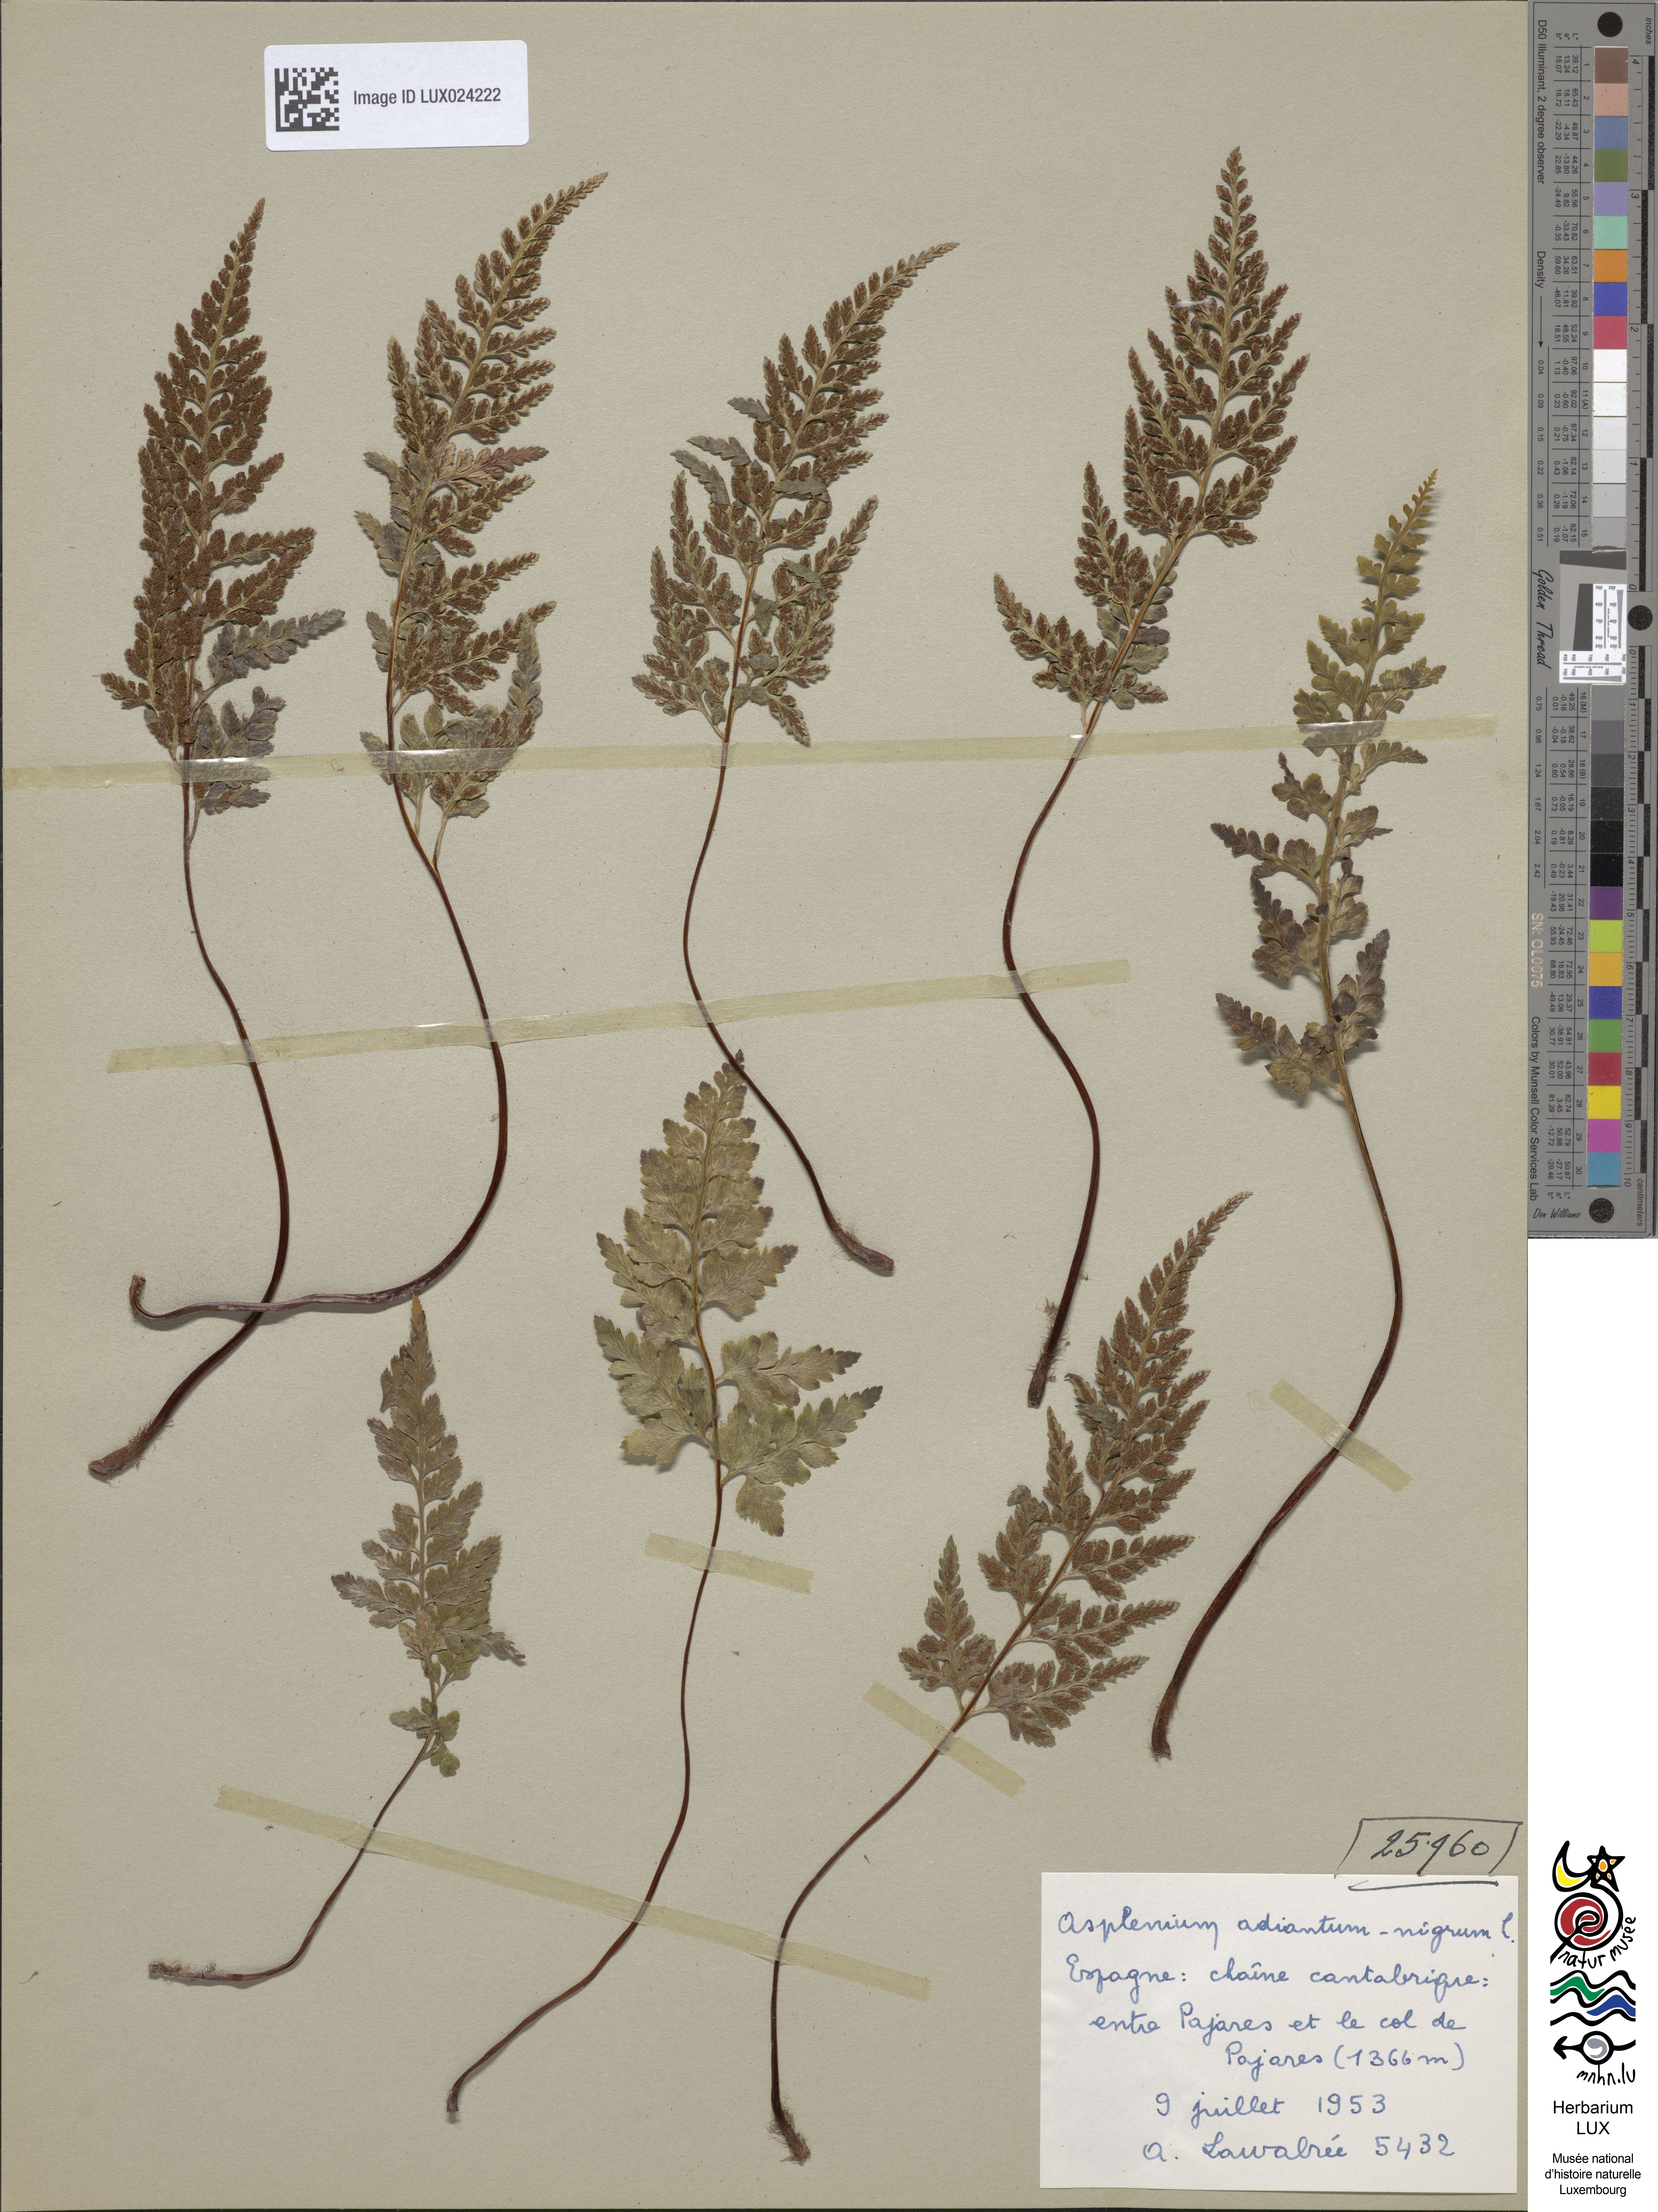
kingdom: Plantae
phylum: Tracheophyta
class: Polypodiopsida
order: Polypodiales
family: Aspleniaceae
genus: Asplenium
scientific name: Asplenium adiantum-nigrum
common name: Black spleenwort
